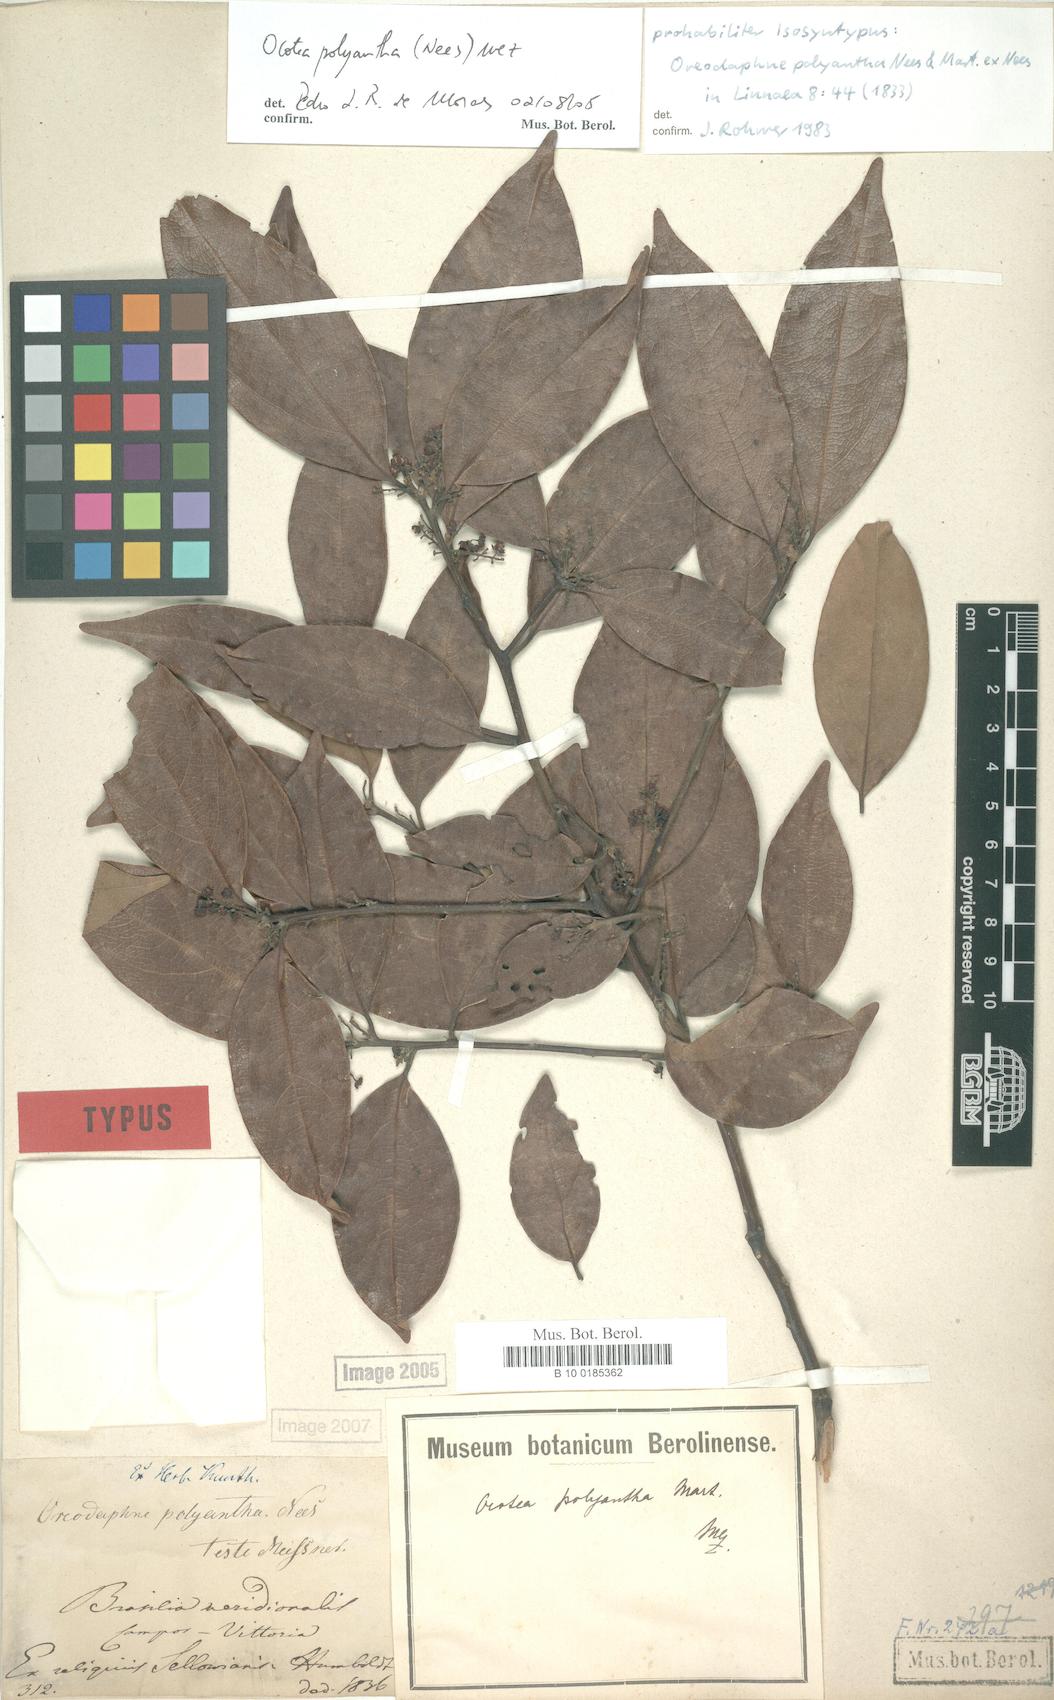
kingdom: Plantae
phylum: Tracheophyta
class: Magnoliopsida
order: Laurales
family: Lauraceae
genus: Ocotea
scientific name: Ocotea polyantha
